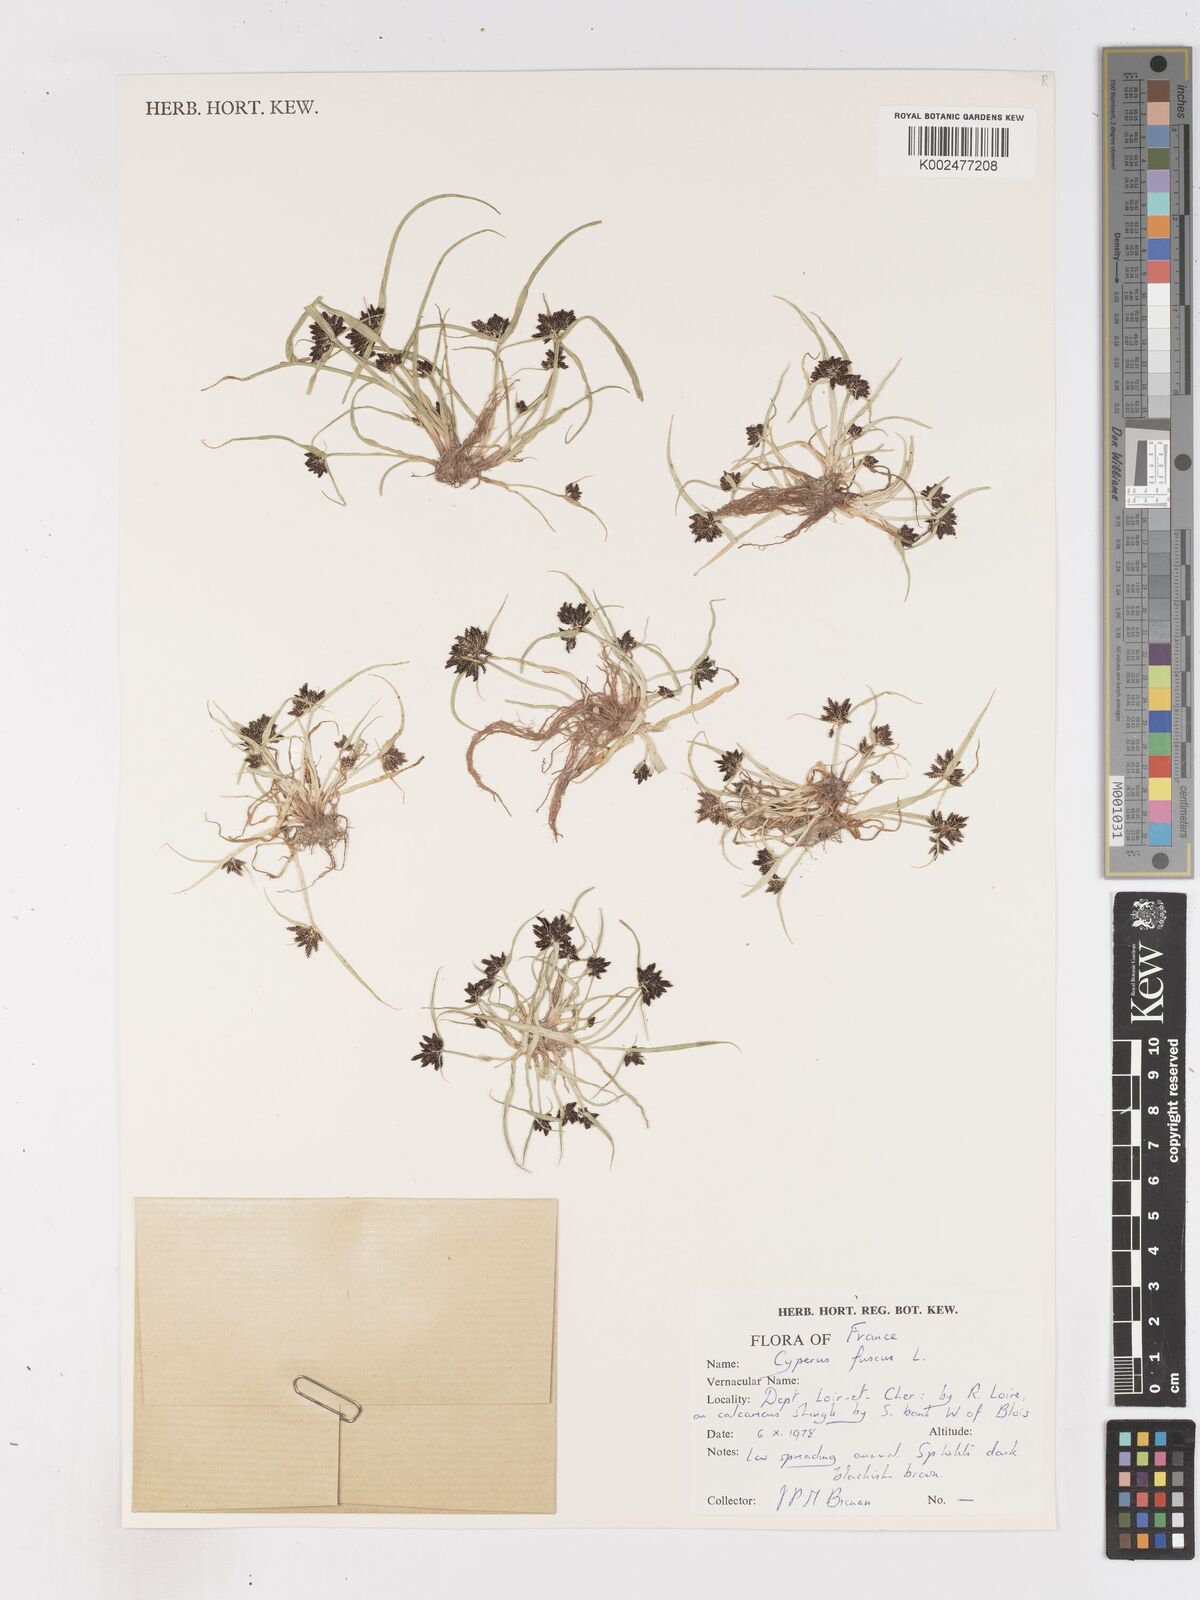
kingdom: Plantae
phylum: Tracheophyta
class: Liliopsida
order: Poales
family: Cyperaceae
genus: Cyperus
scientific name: Cyperus fuscus
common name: Brown galingale
